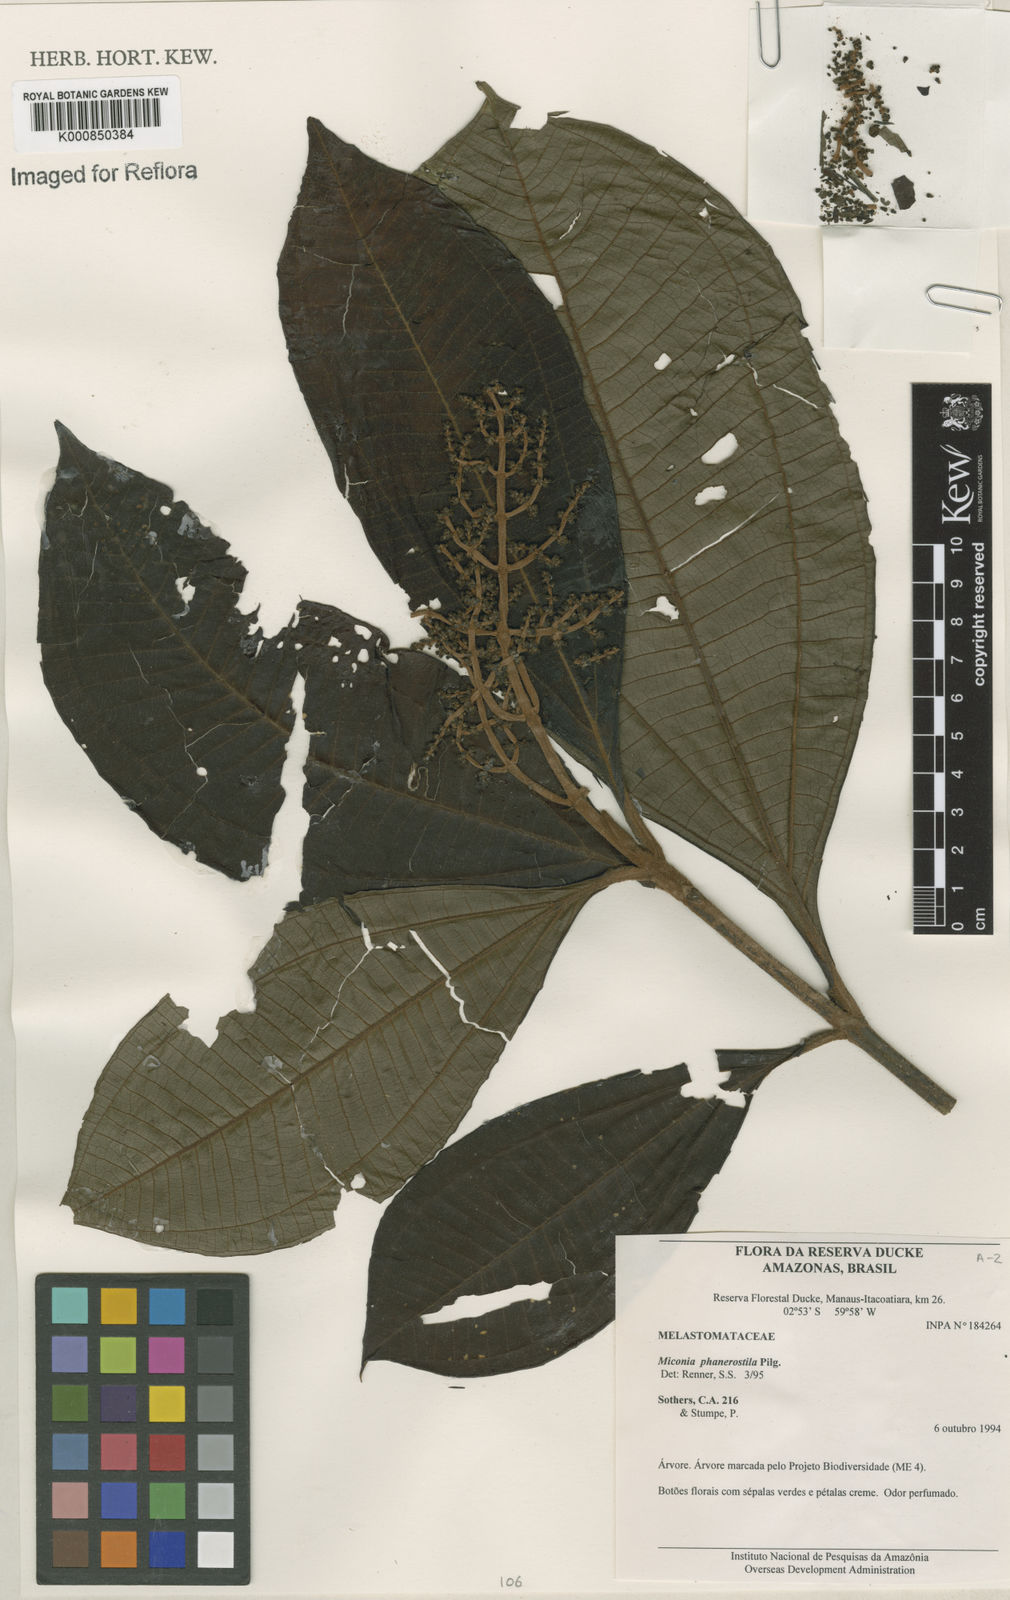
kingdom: Plantae
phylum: Tracheophyta
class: Magnoliopsida
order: Myrtales
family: Melastomataceae
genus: Miconia
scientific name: Miconia phanerostila
